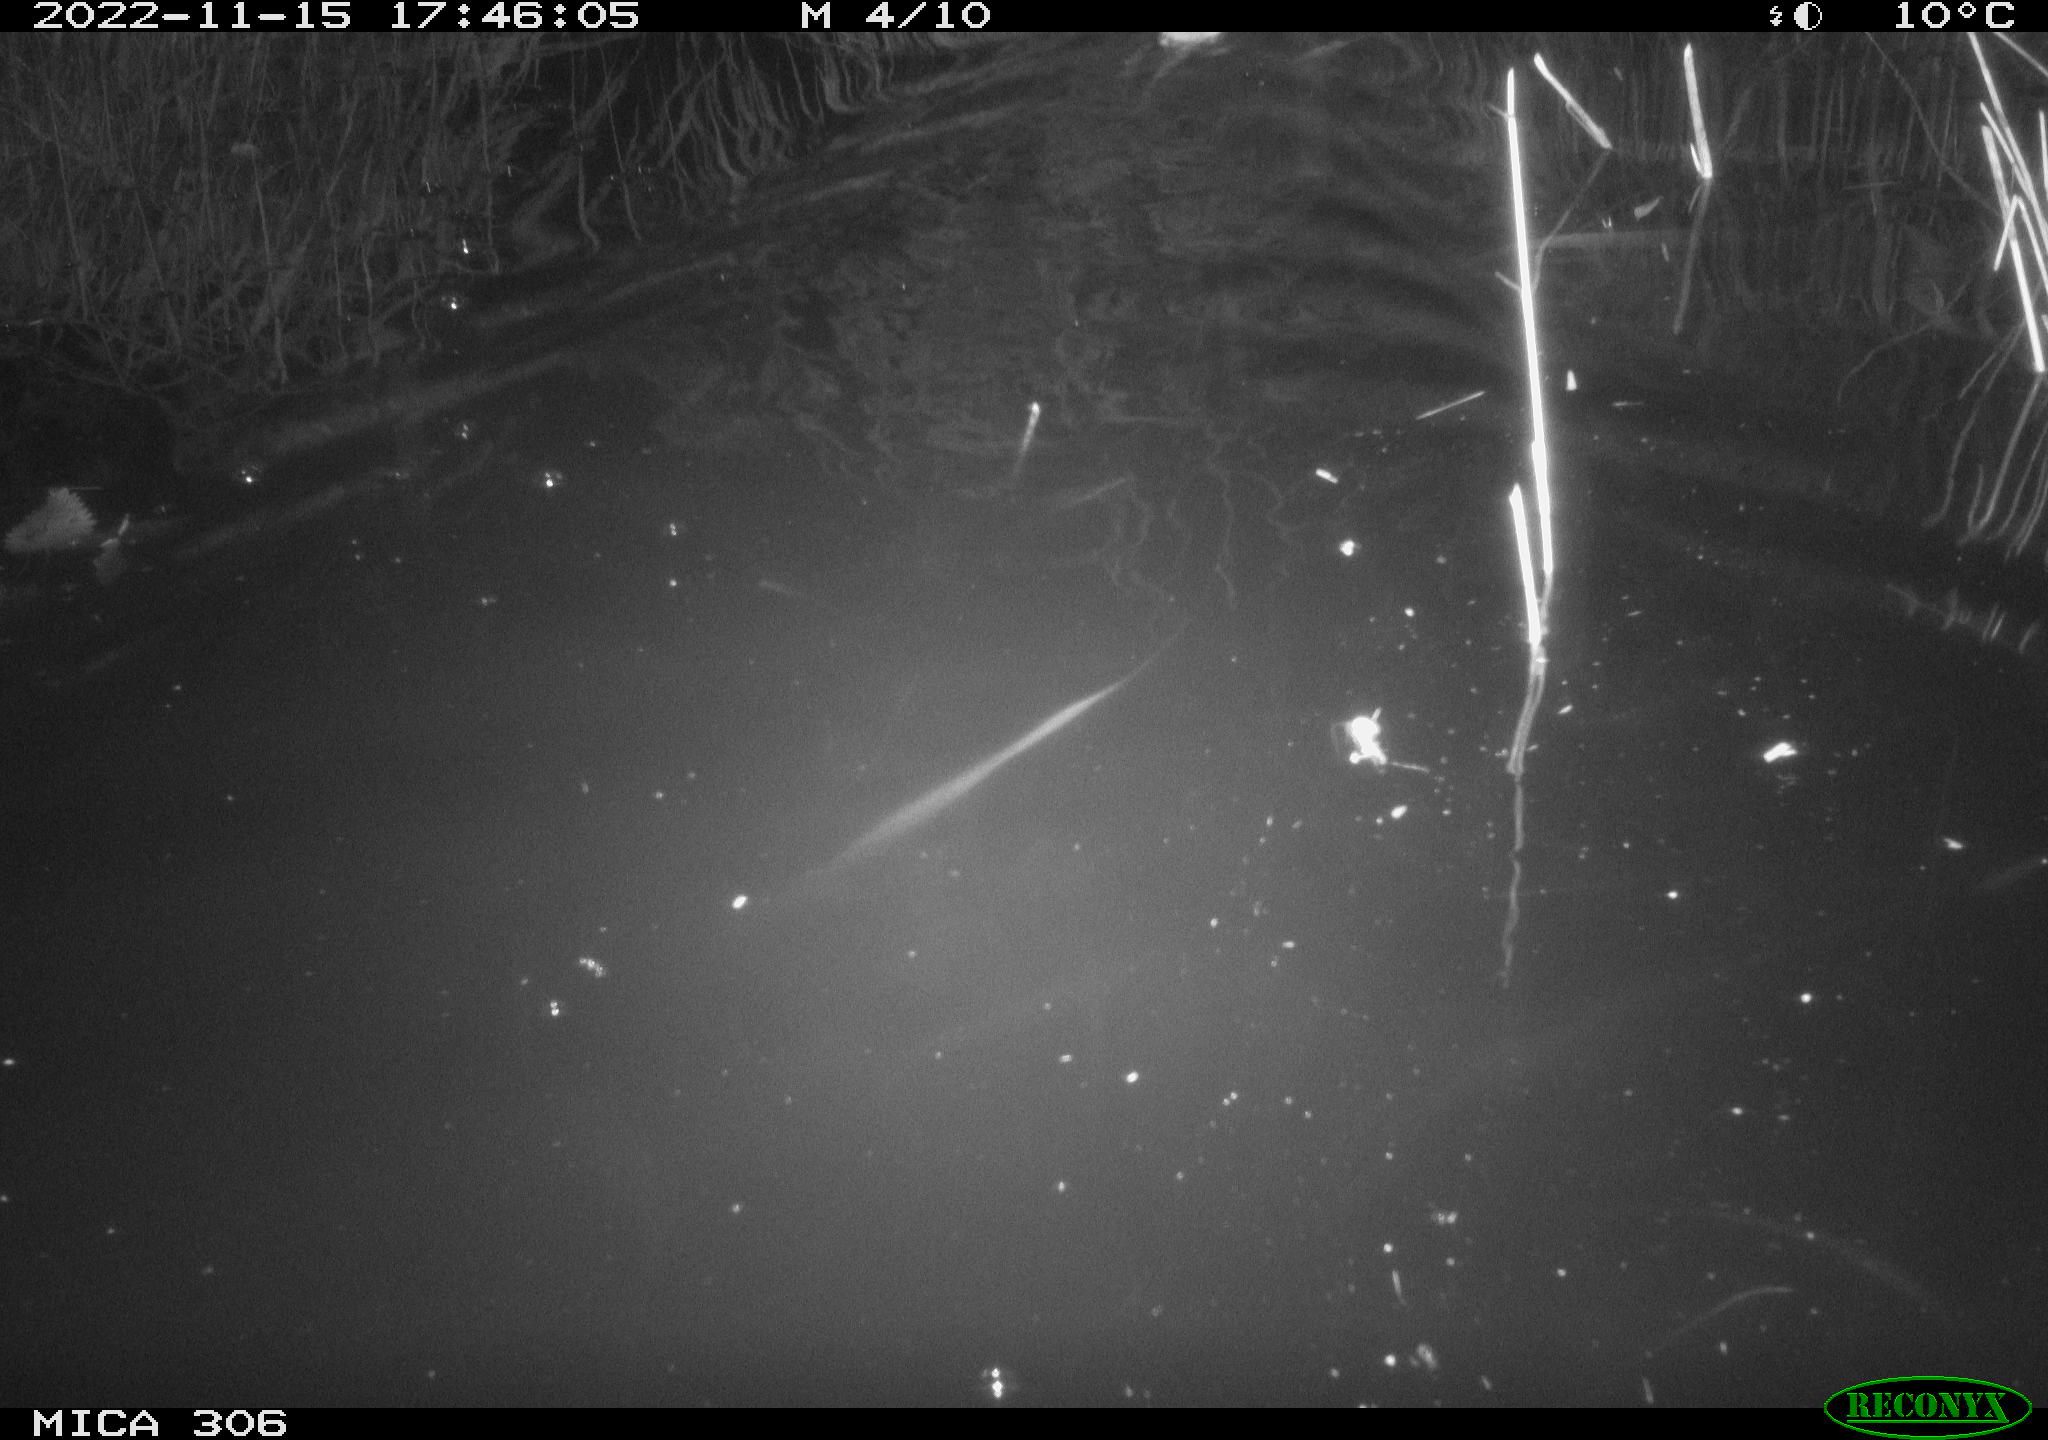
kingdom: Animalia
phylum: Chordata
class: Mammalia
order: Rodentia
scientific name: Rodentia
